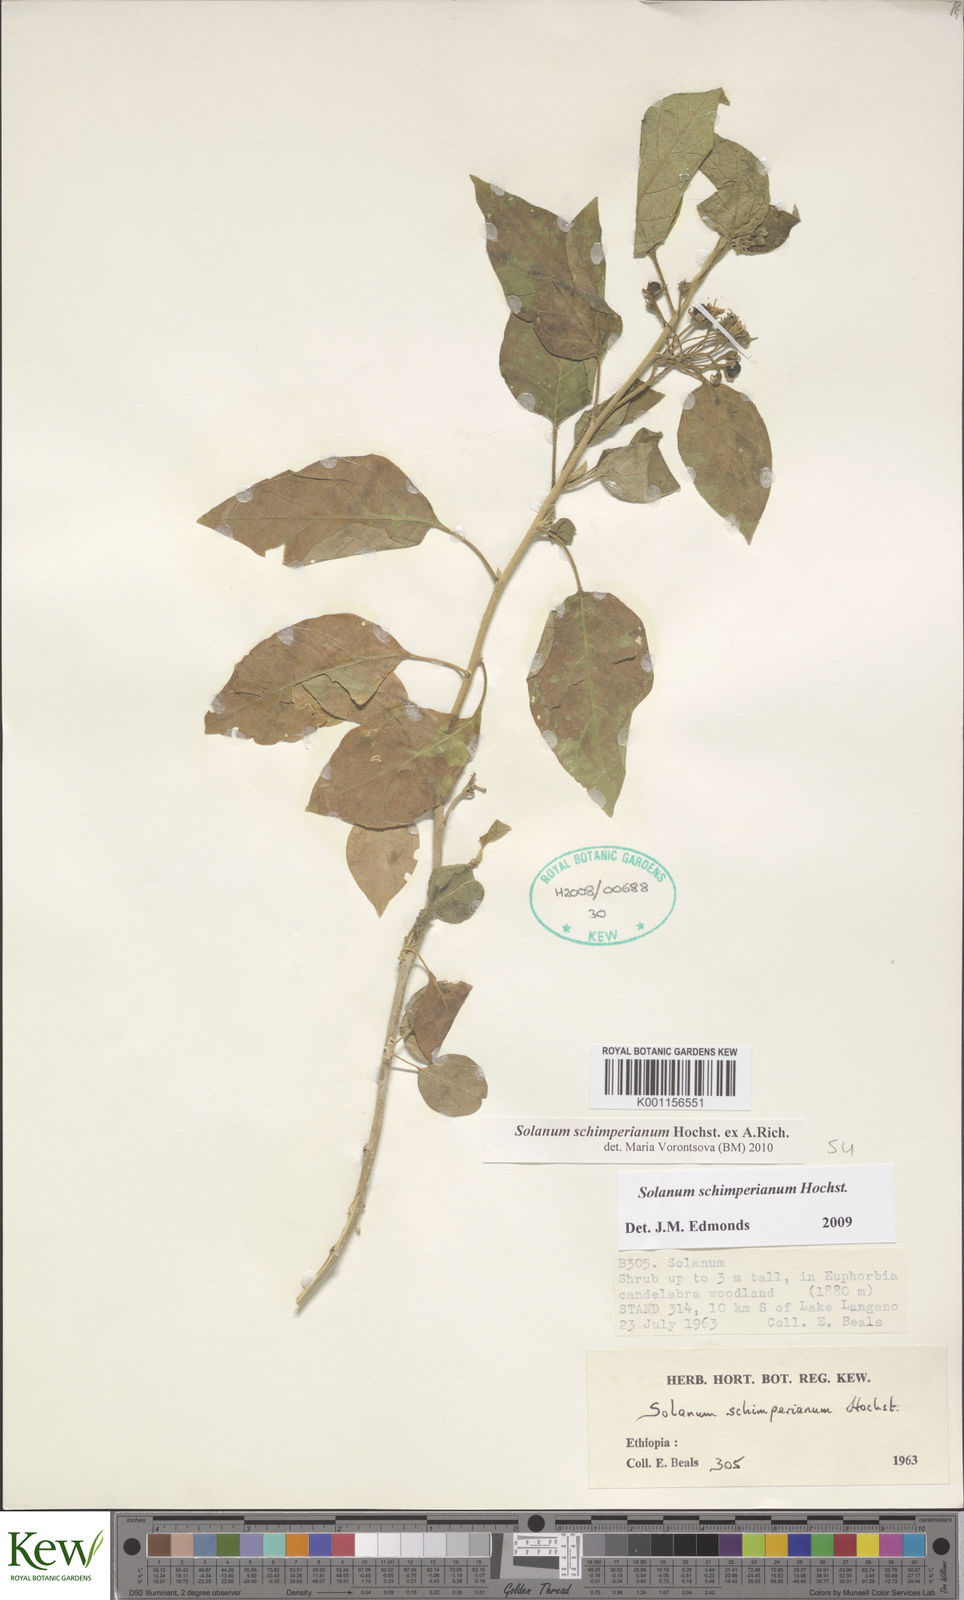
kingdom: Plantae
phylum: Tracheophyta
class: Magnoliopsida
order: Solanales
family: Solanaceae
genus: Solanum
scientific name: Solanum
